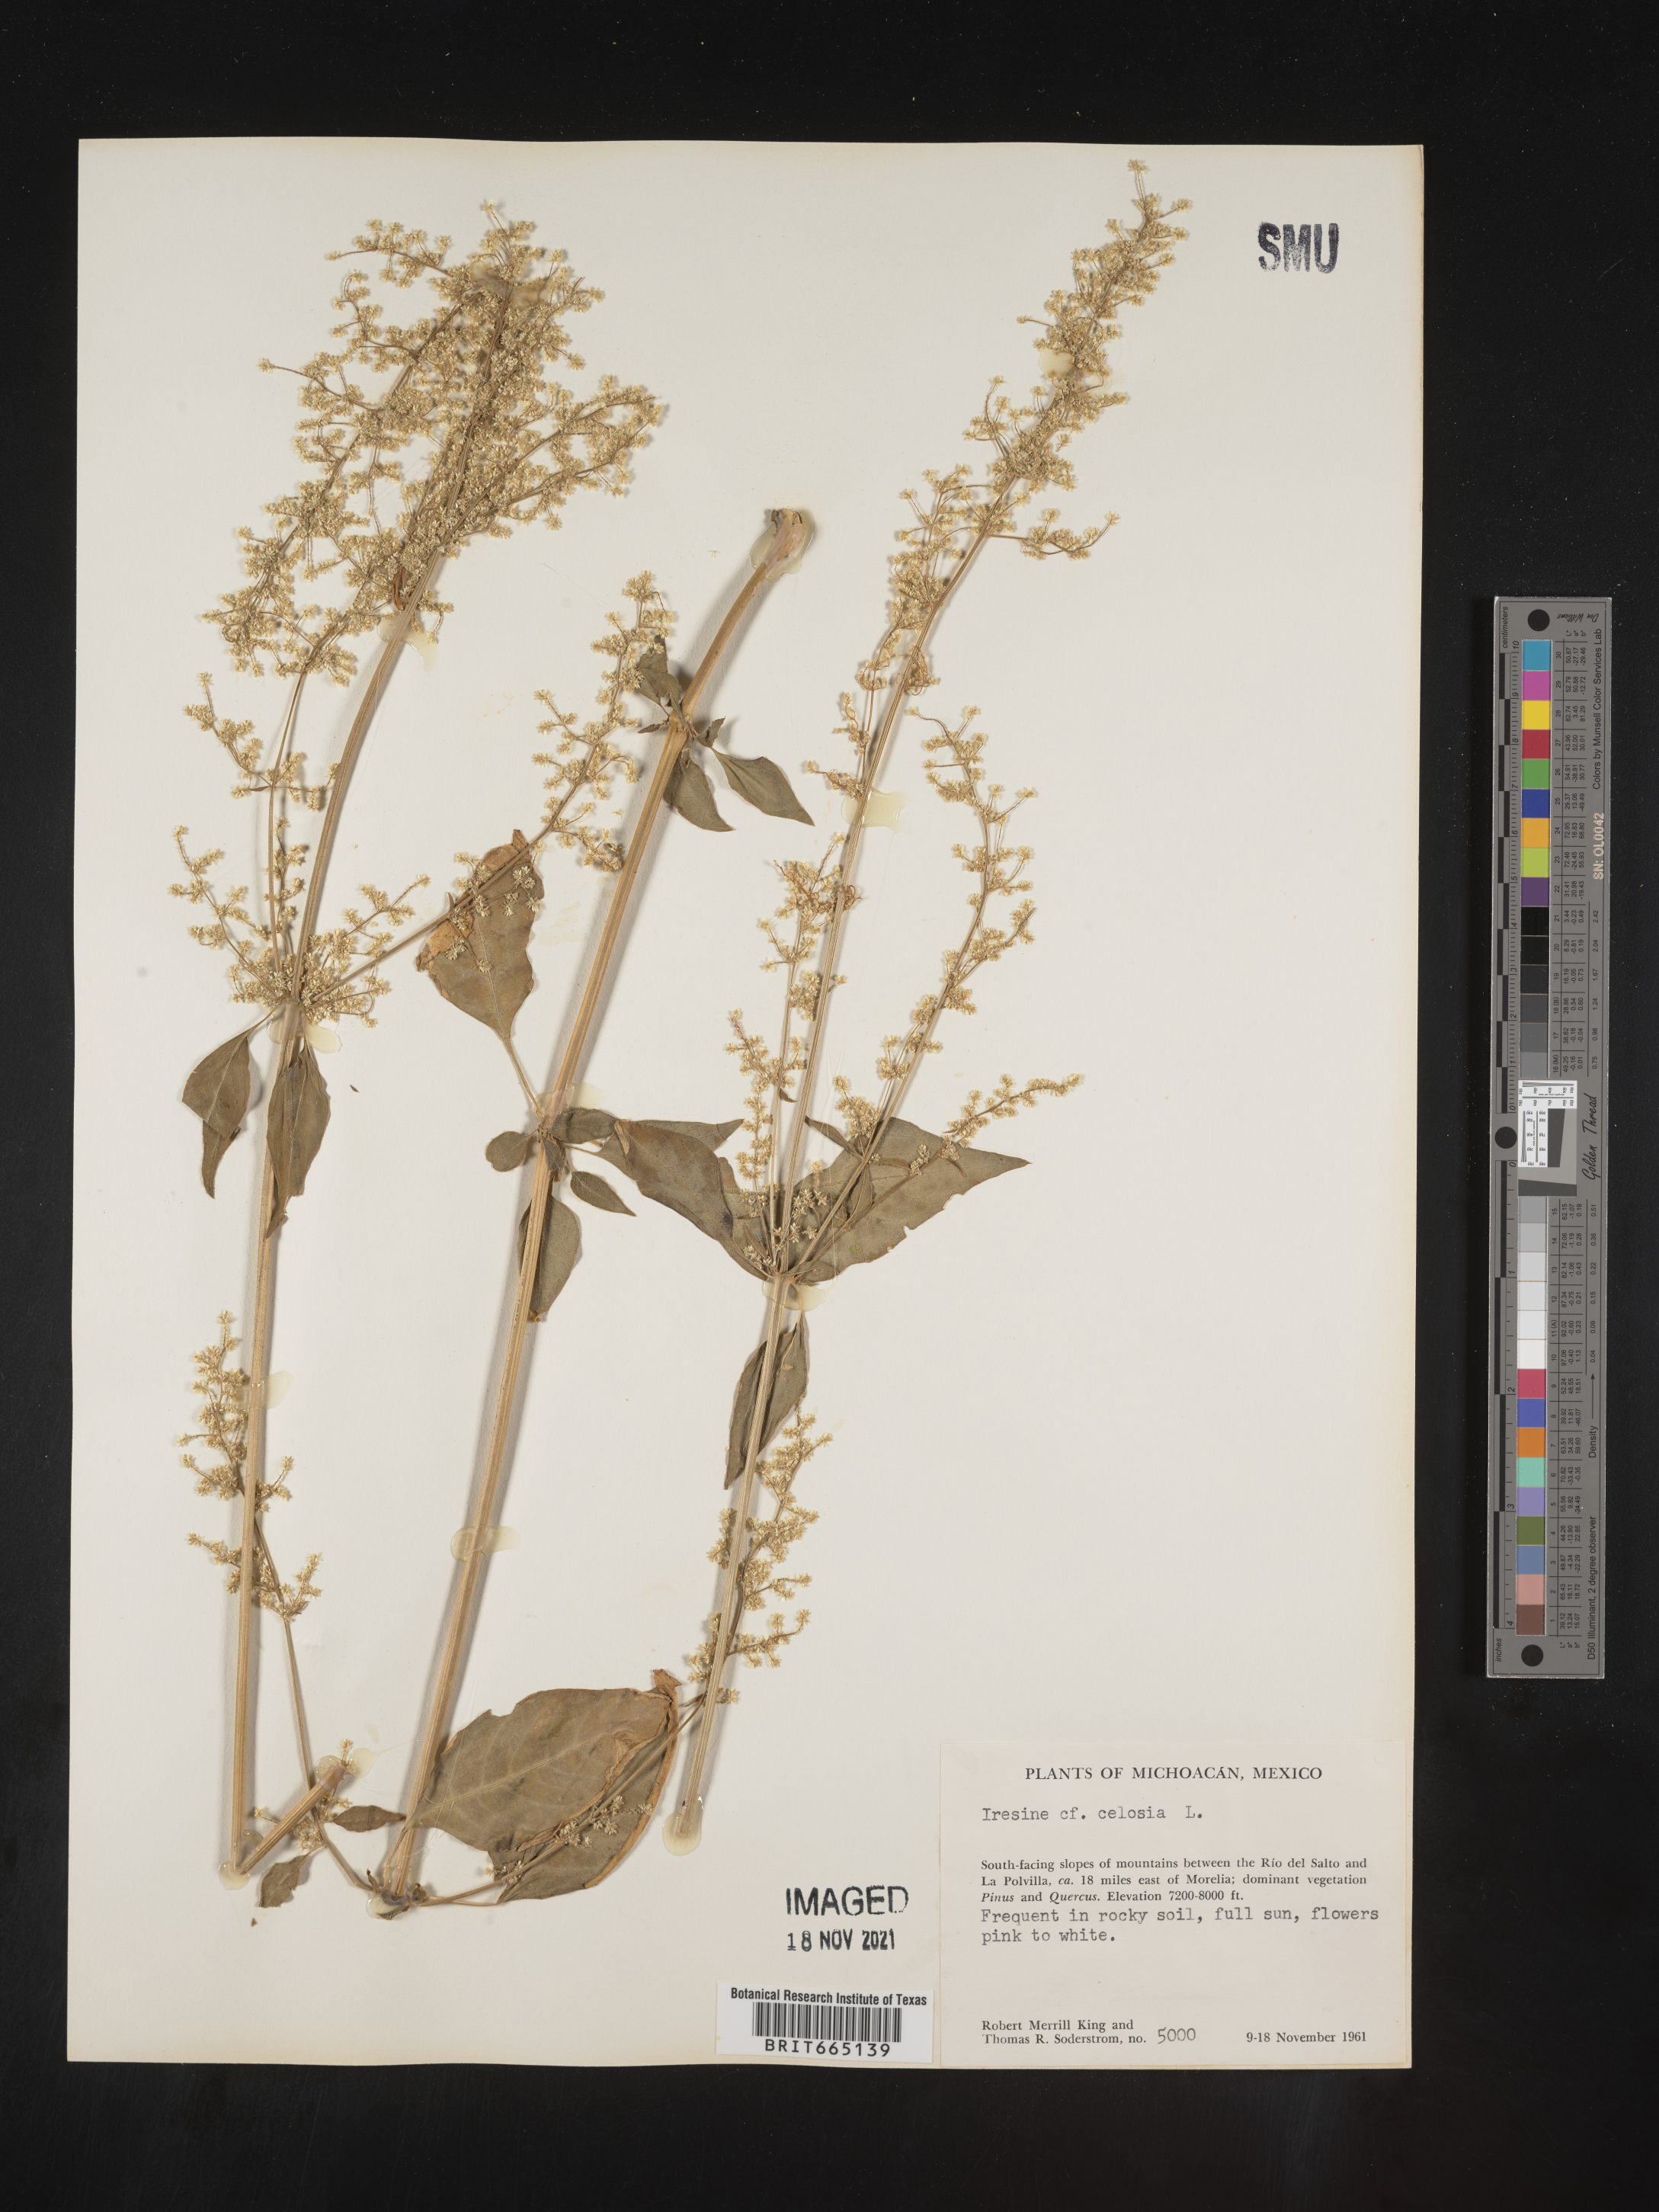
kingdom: Plantae
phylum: Tracheophyta
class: Magnoliopsida
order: Caryophyllales
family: Amaranthaceae
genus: Iresine
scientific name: Iresine
